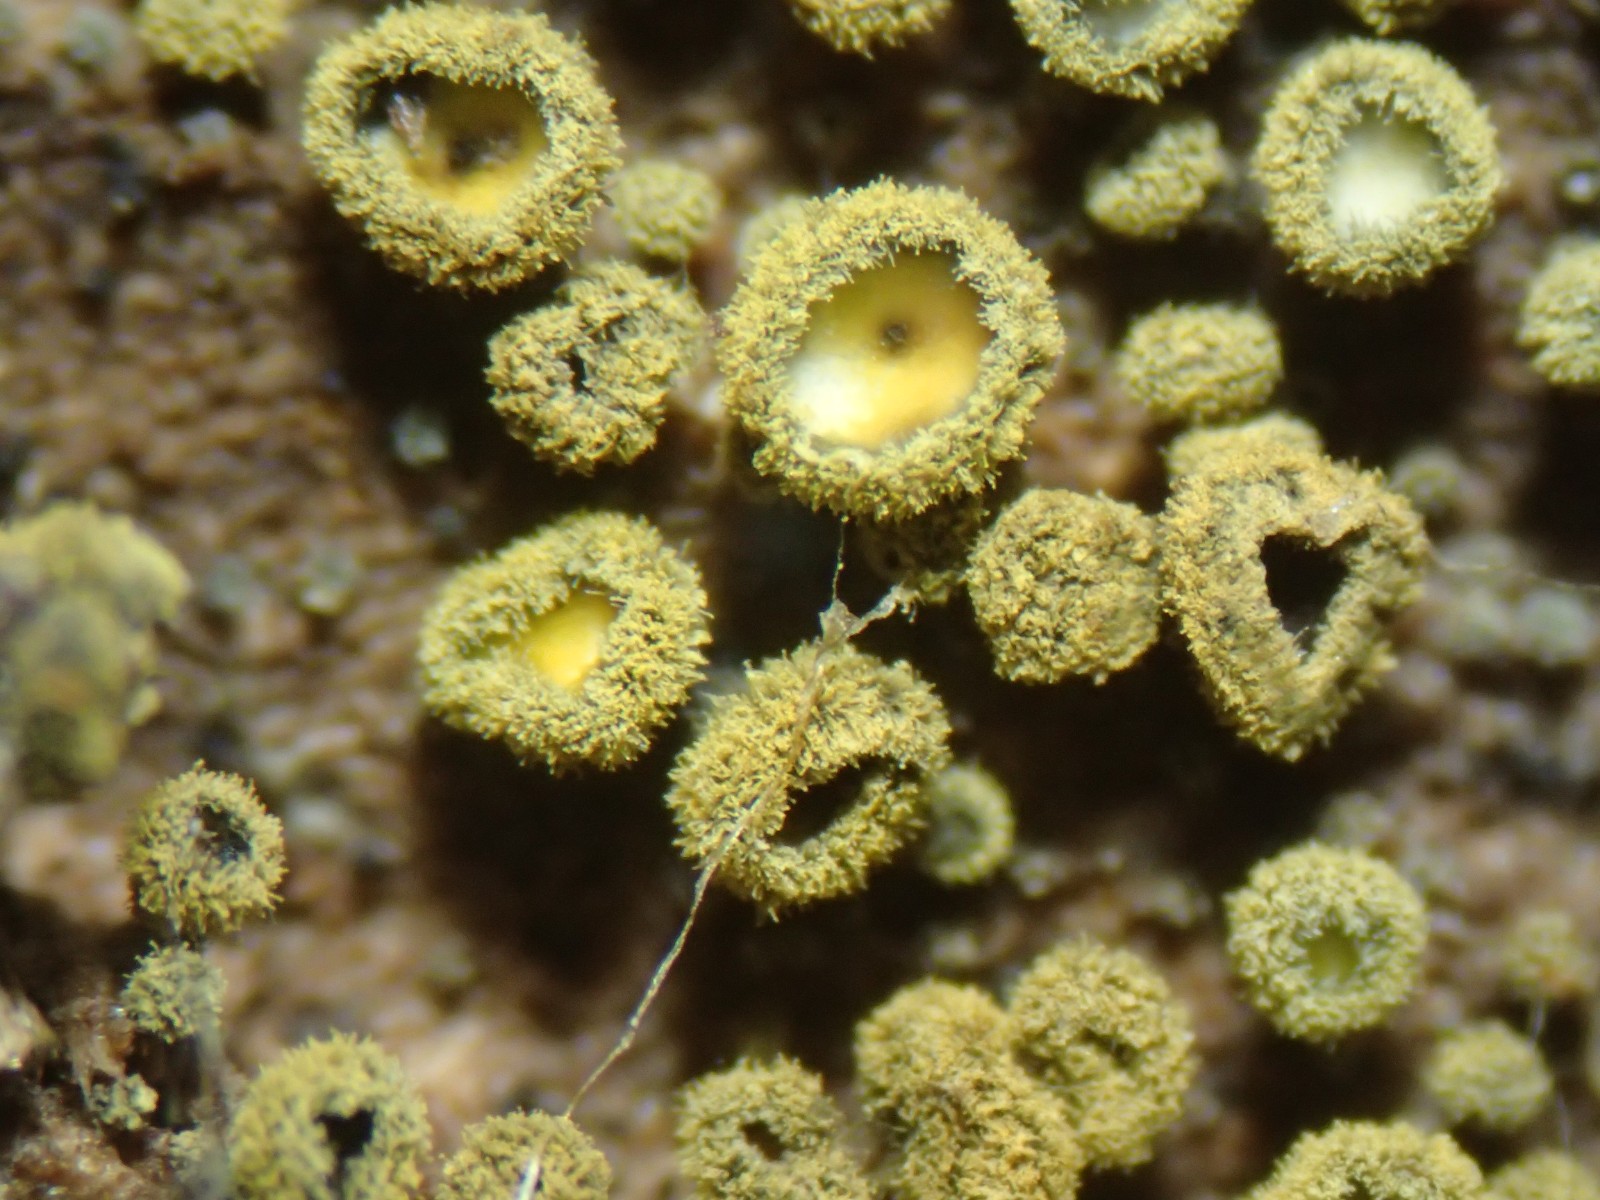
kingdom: Fungi
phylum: Ascomycota
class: Leotiomycetes
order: Helotiales
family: Lachnaceae
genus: Neodasyscypha
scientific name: Neodasyscypha cerina
